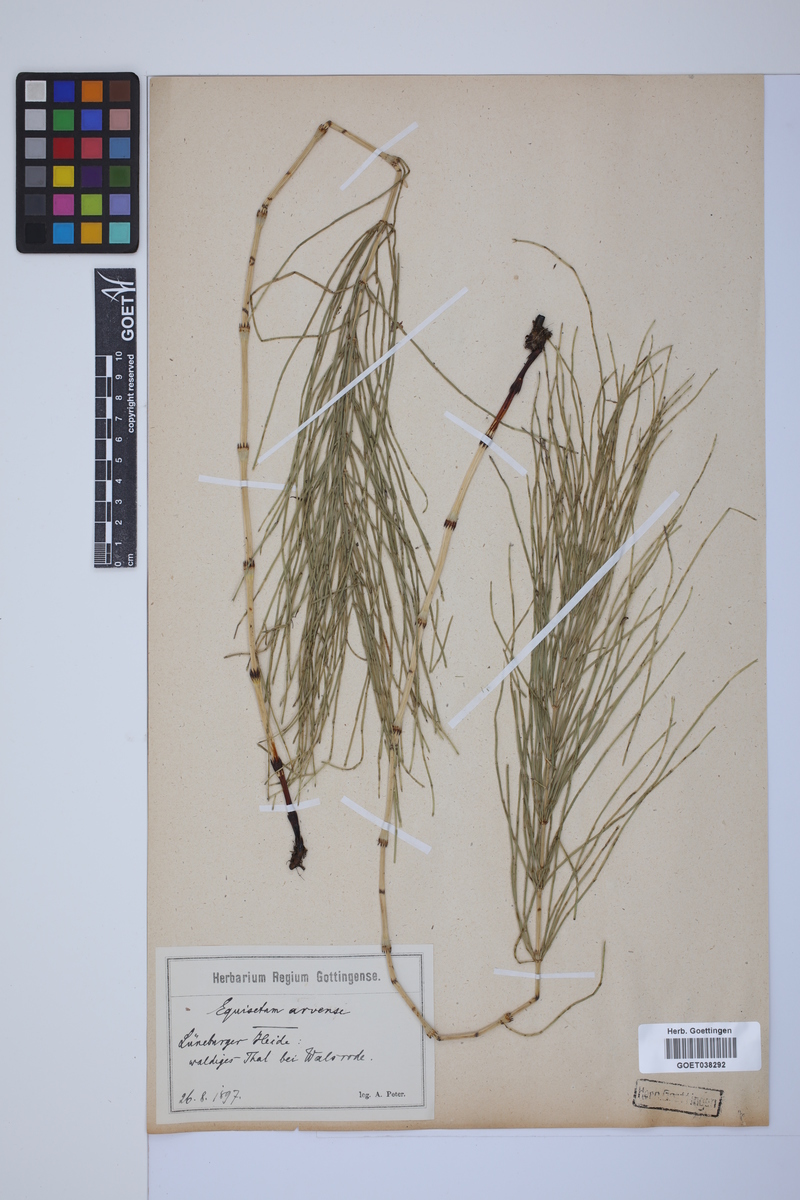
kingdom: Plantae
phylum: Tracheophyta
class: Polypodiopsida
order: Equisetales
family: Equisetaceae
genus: Equisetum
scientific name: Equisetum arvense
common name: Field horsetail
